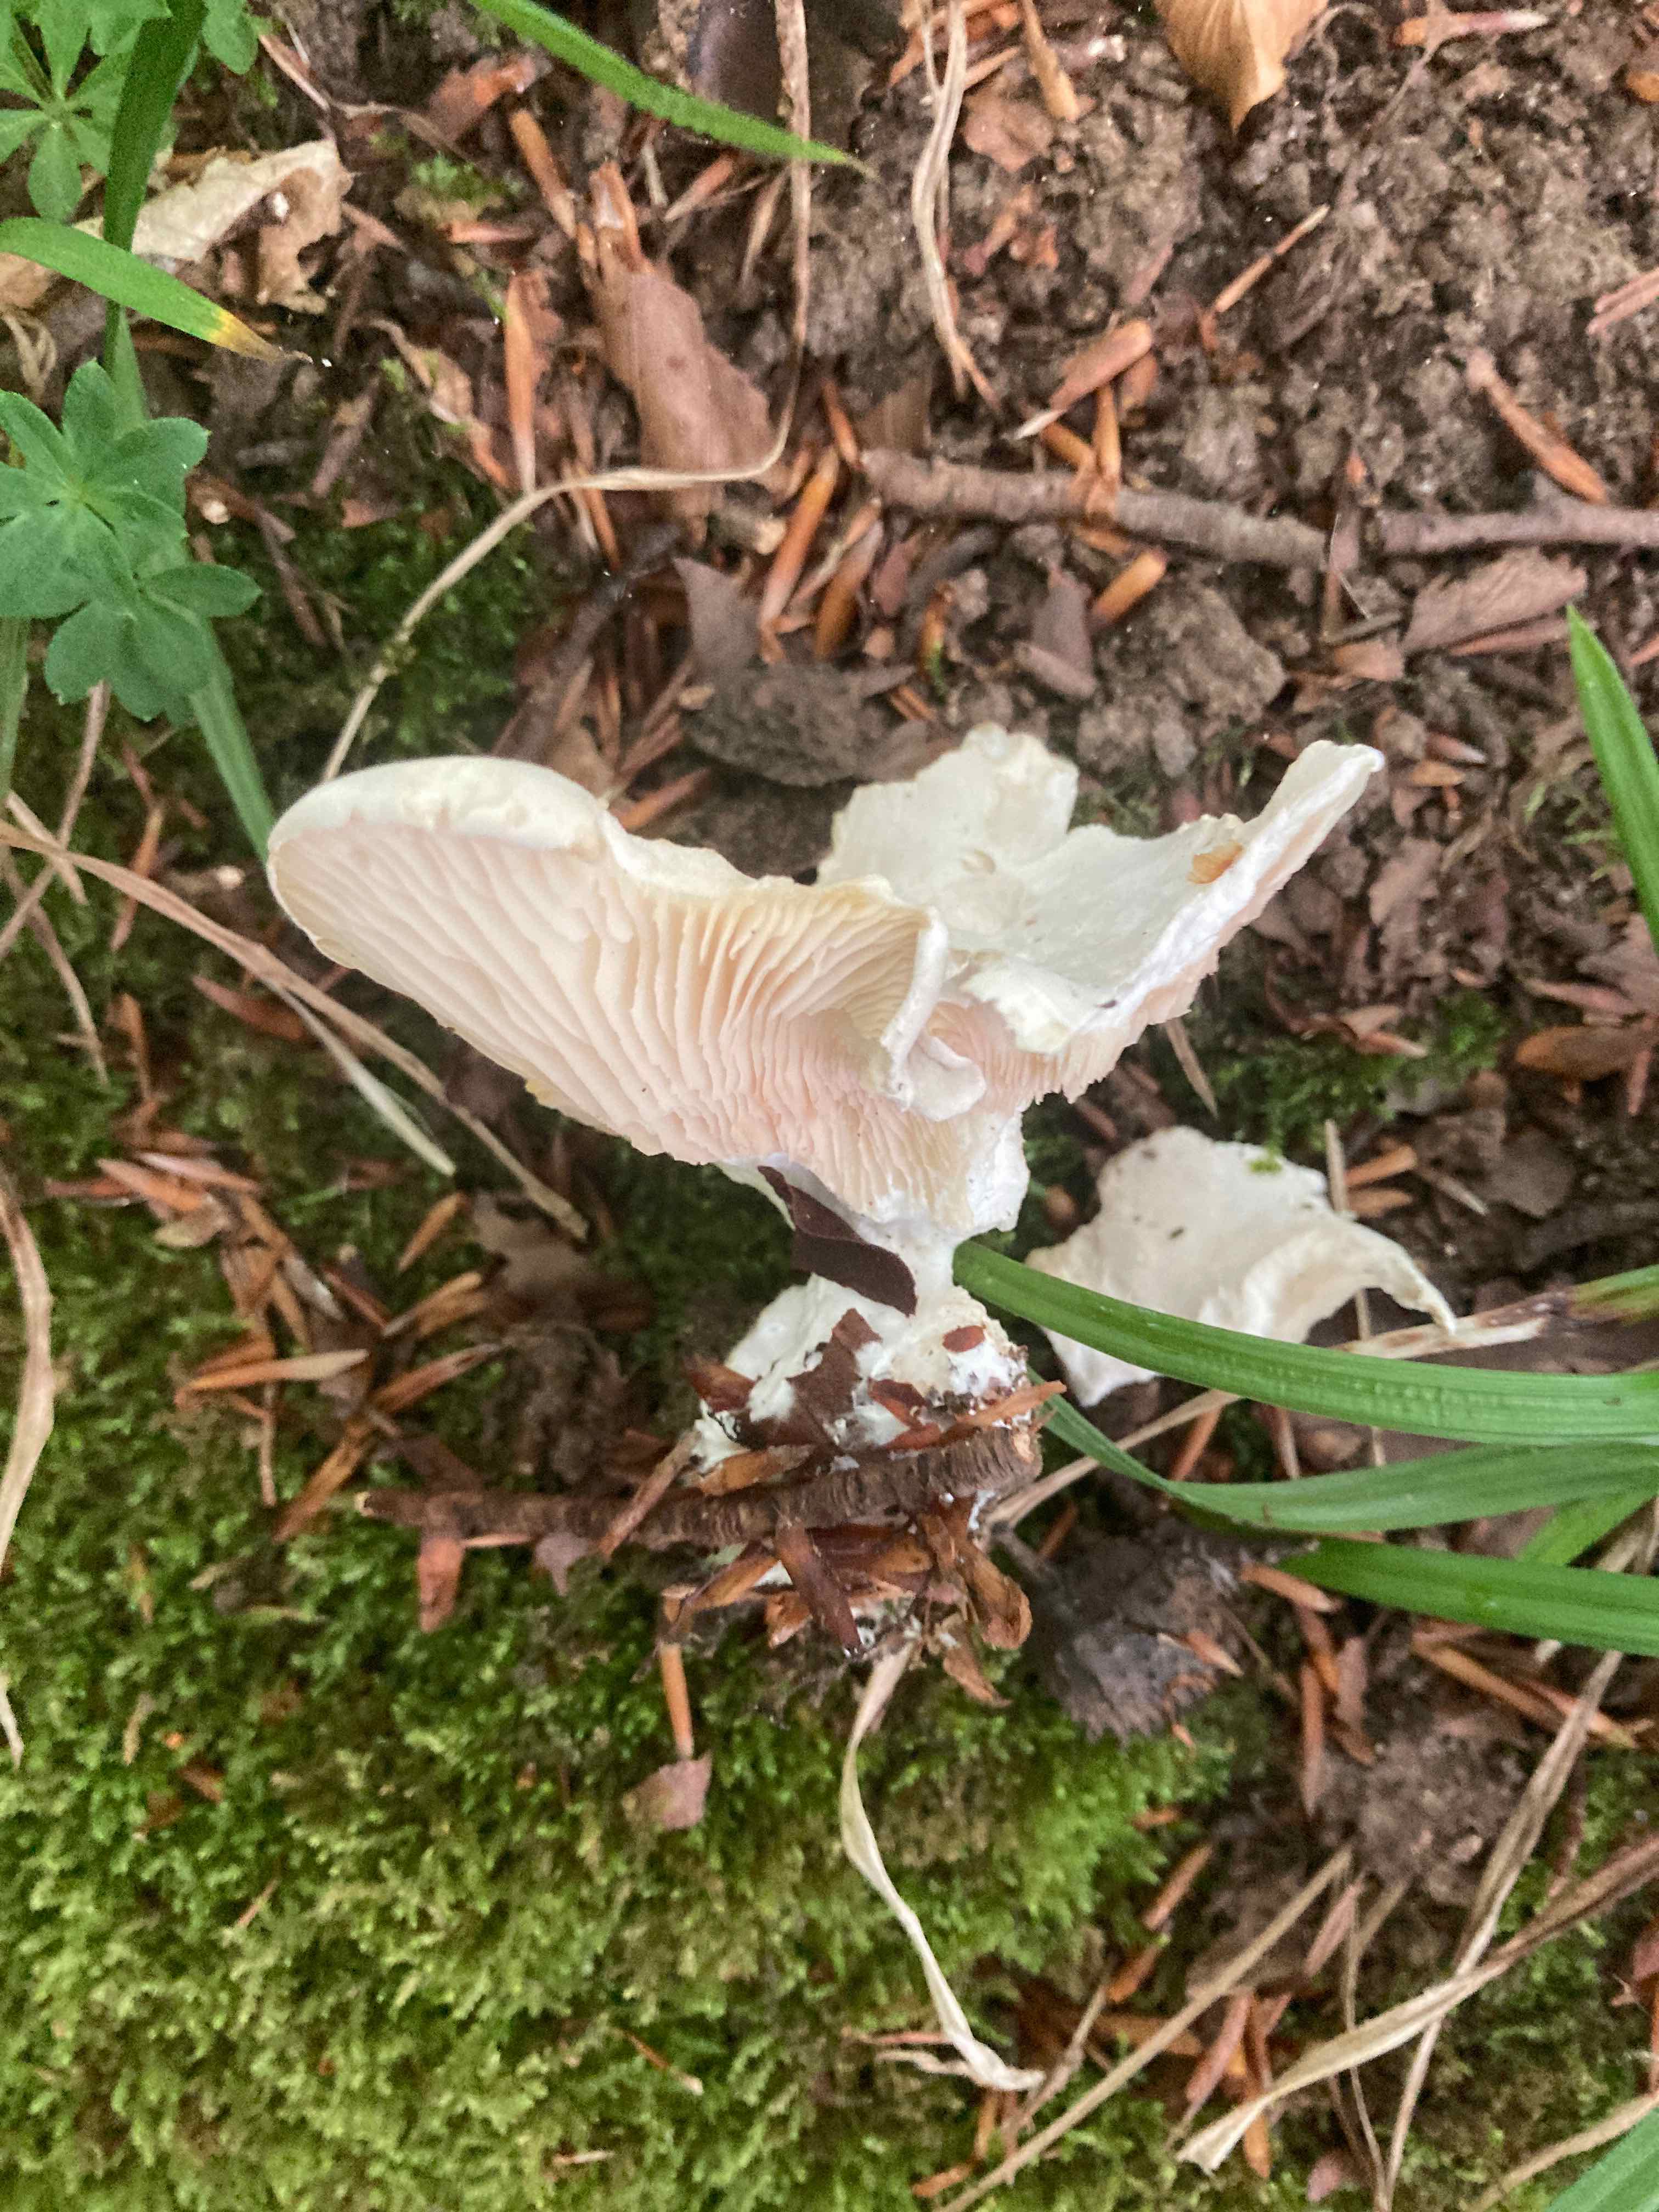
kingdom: Fungi
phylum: Basidiomycota
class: Agaricomycetes
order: Agaricales
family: Entolomataceae
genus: Clitopilus
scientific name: Clitopilus prunulus
